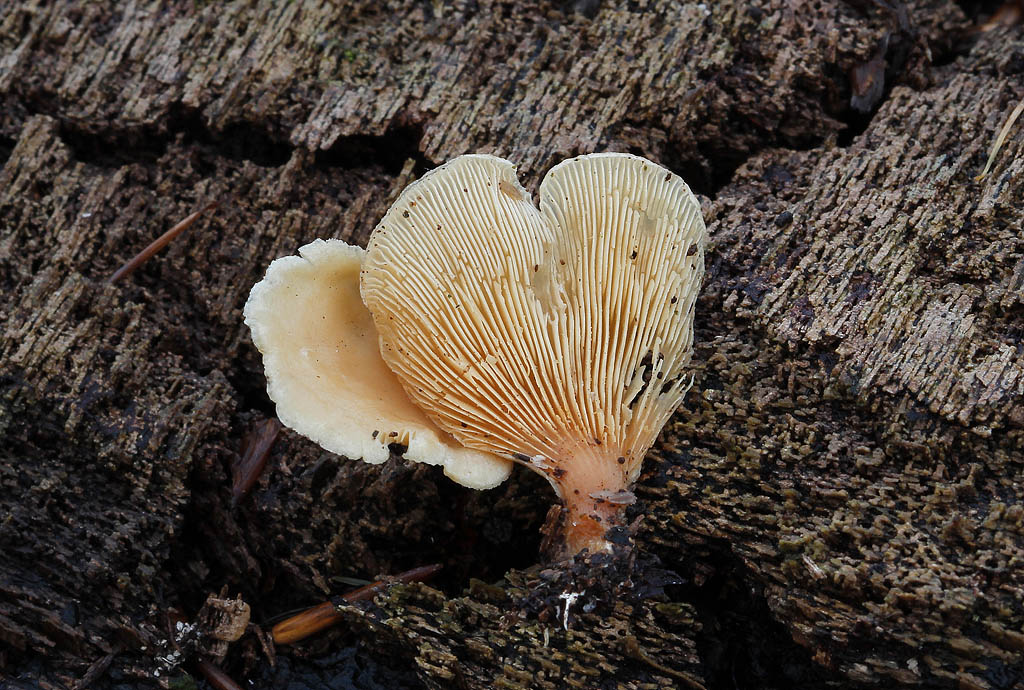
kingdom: Fungi
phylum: Basidiomycota
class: Agaricomycetes
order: Agaricales
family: Pleurotaceae
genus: Hohenbuehelia
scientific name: Hohenbuehelia auriscalpium
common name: spatel-filthat
